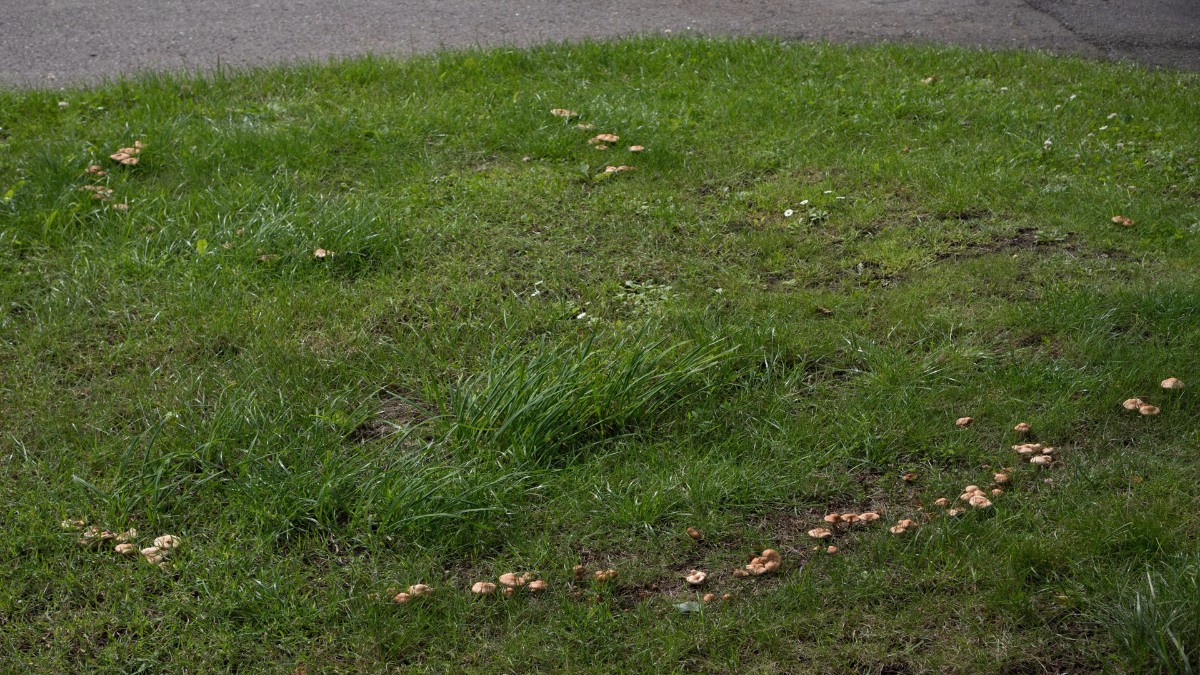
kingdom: Fungi
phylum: Basidiomycota
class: Agaricomycetes
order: Agaricales
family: Marasmiaceae
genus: Marasmius
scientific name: Marasmius oreades
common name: elledans-bruskhat
